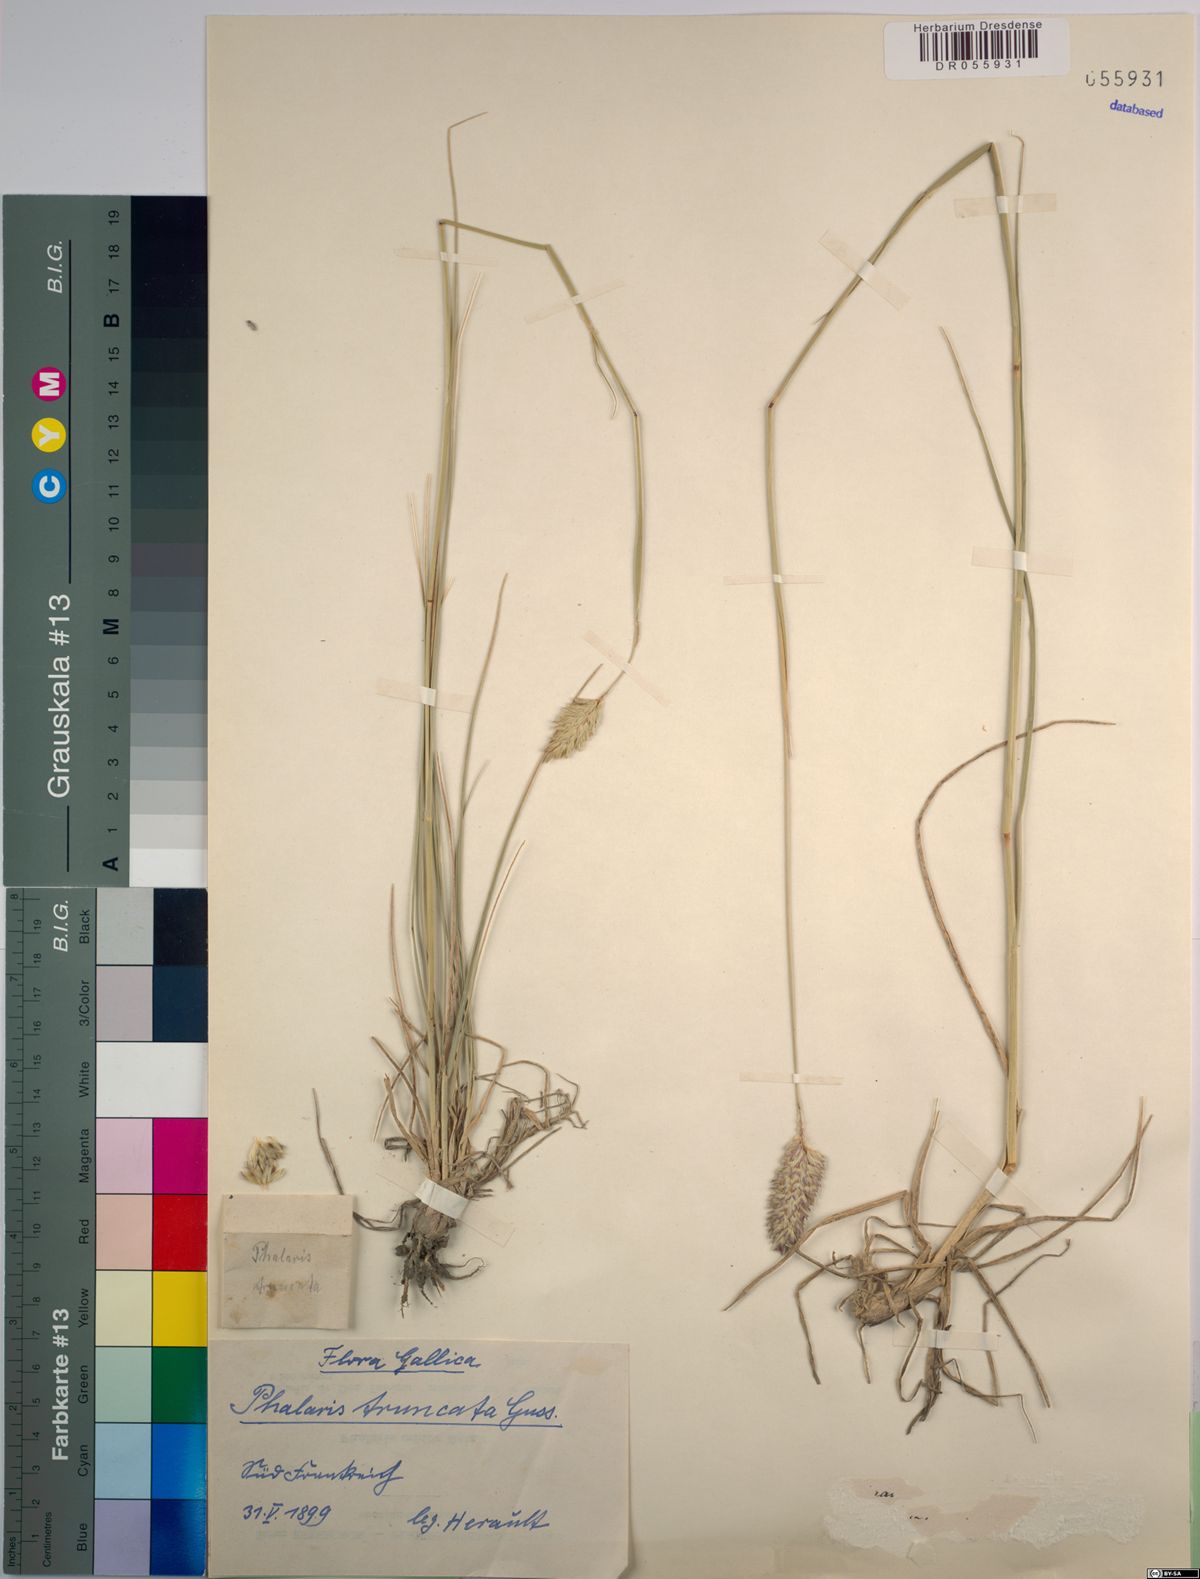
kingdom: Plantae
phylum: Tracheophyta
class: Liliopsida
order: Poales
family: Poaceae
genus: Phalaris
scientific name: Phalaris truncata
